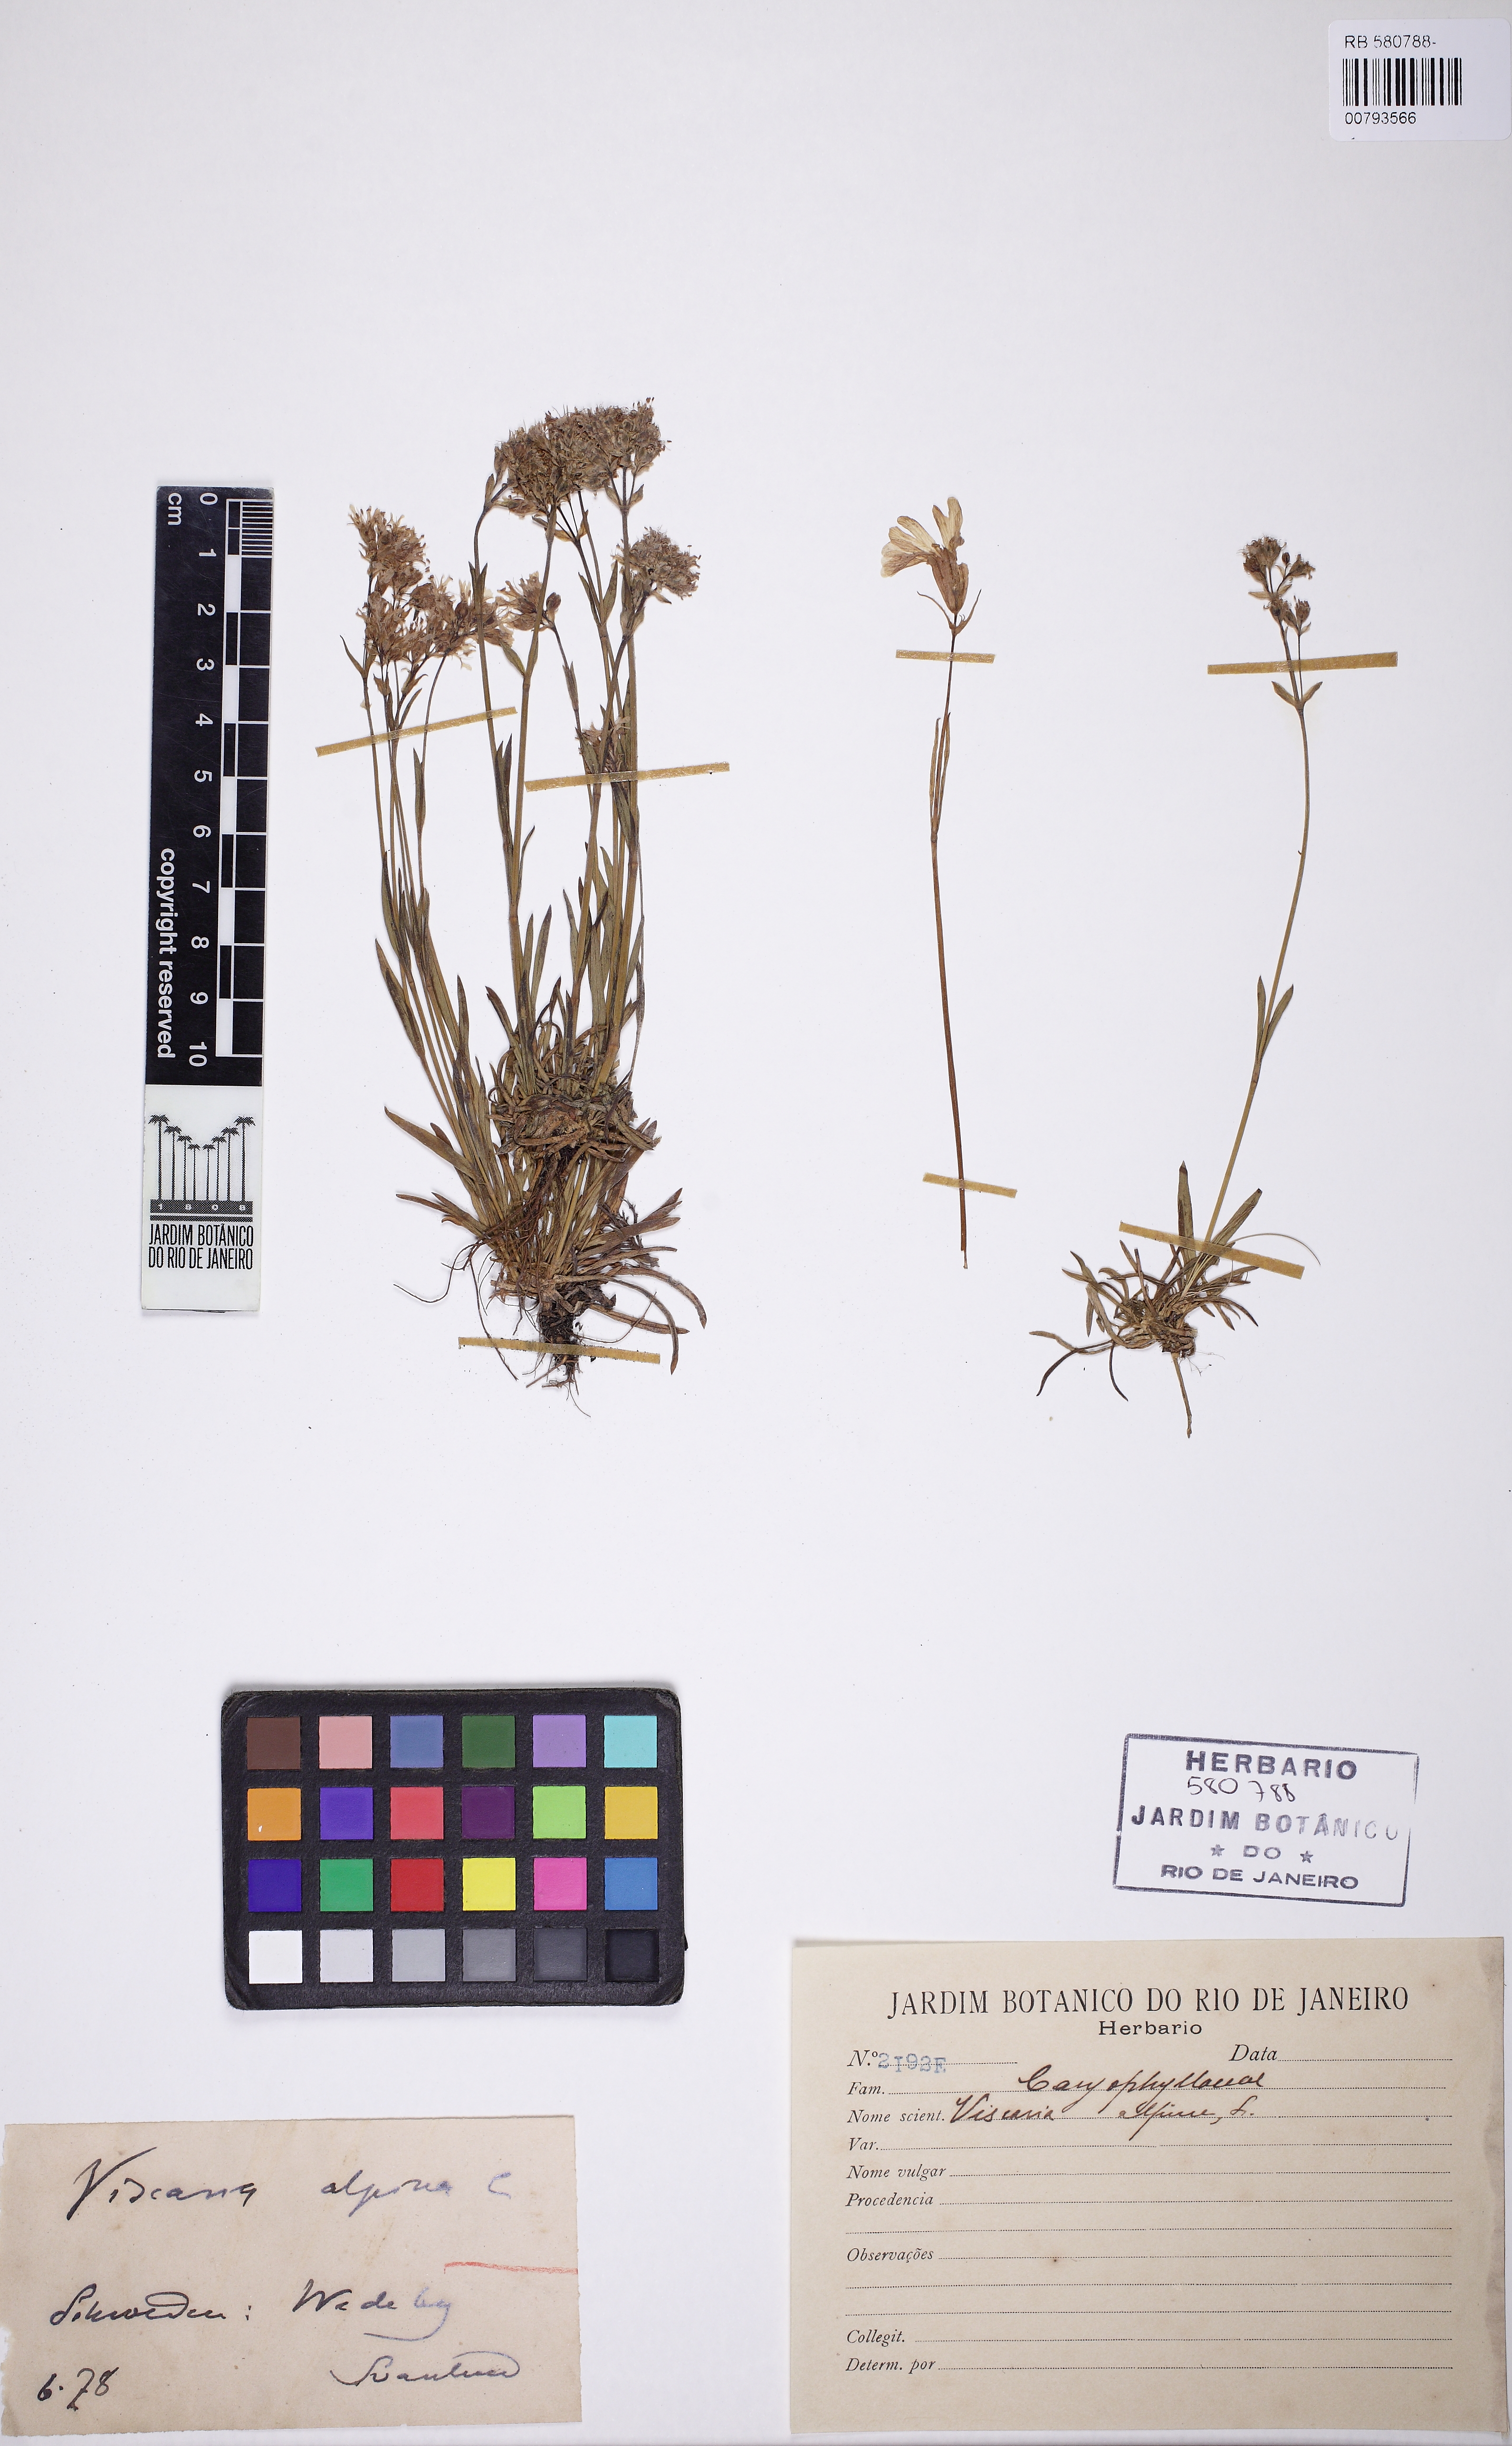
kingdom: Plantae
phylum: Tracheophyta
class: Magnoliopsida
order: Caryophyllales
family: Caryophyllaceae
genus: Viscaria
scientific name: Viscaria alpina
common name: Alpine campion
